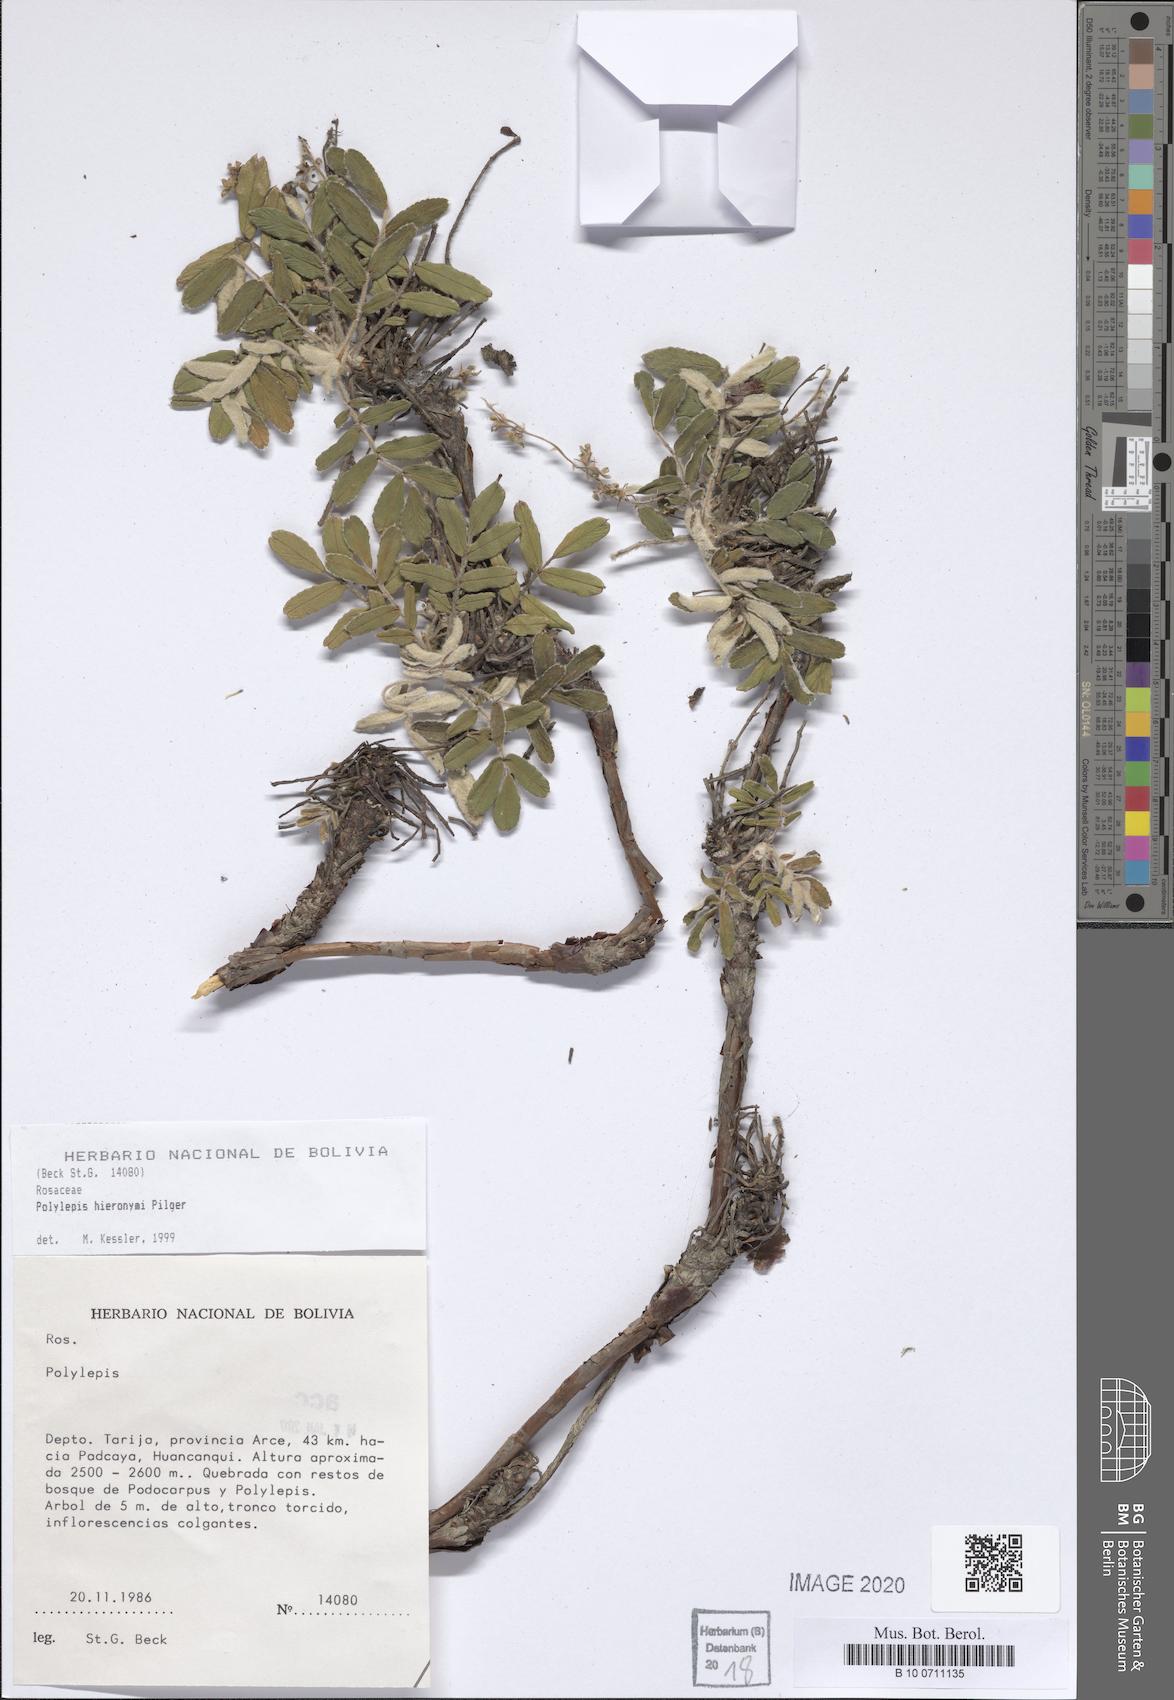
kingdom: Plantae
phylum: Tracheophyta
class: Magnoliopsida
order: Rosales
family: Rosaceae
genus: Polylepis
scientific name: Polylepis hieronymi
